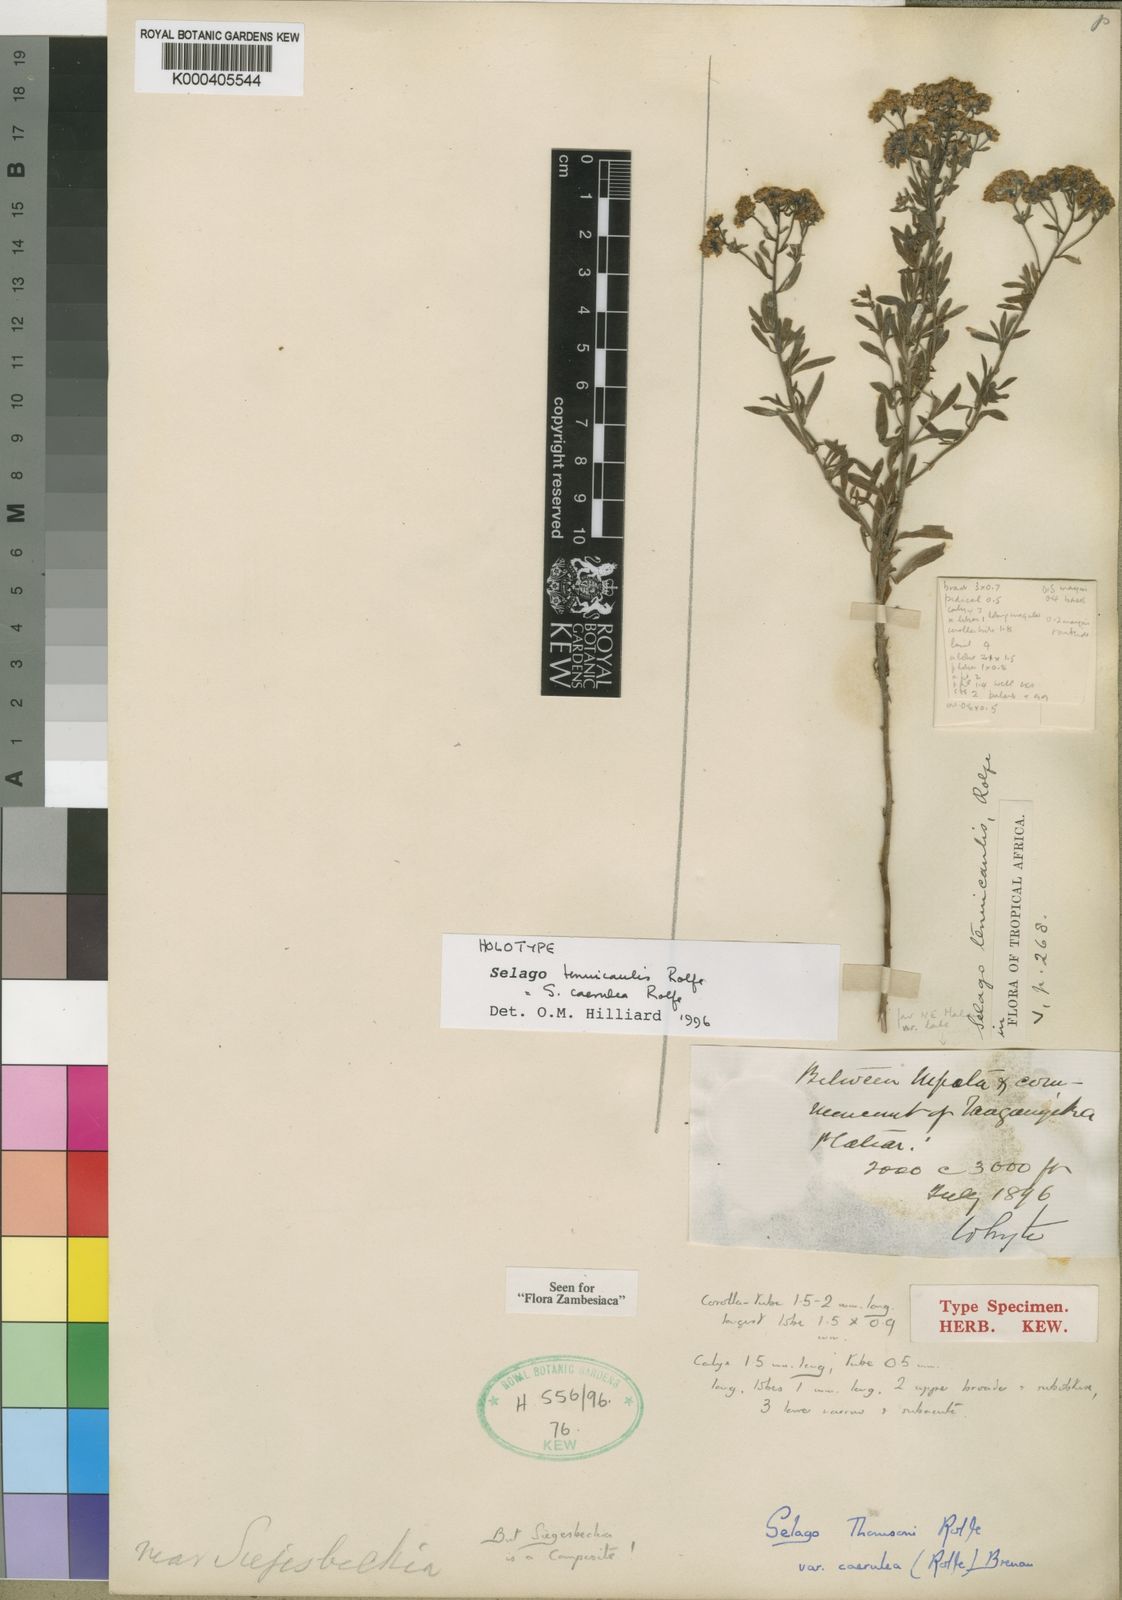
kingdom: Plantae
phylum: Tracheophyta
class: Magnoliopsida
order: Lamiales
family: Scrophulariaceae
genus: Selago
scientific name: Selago
